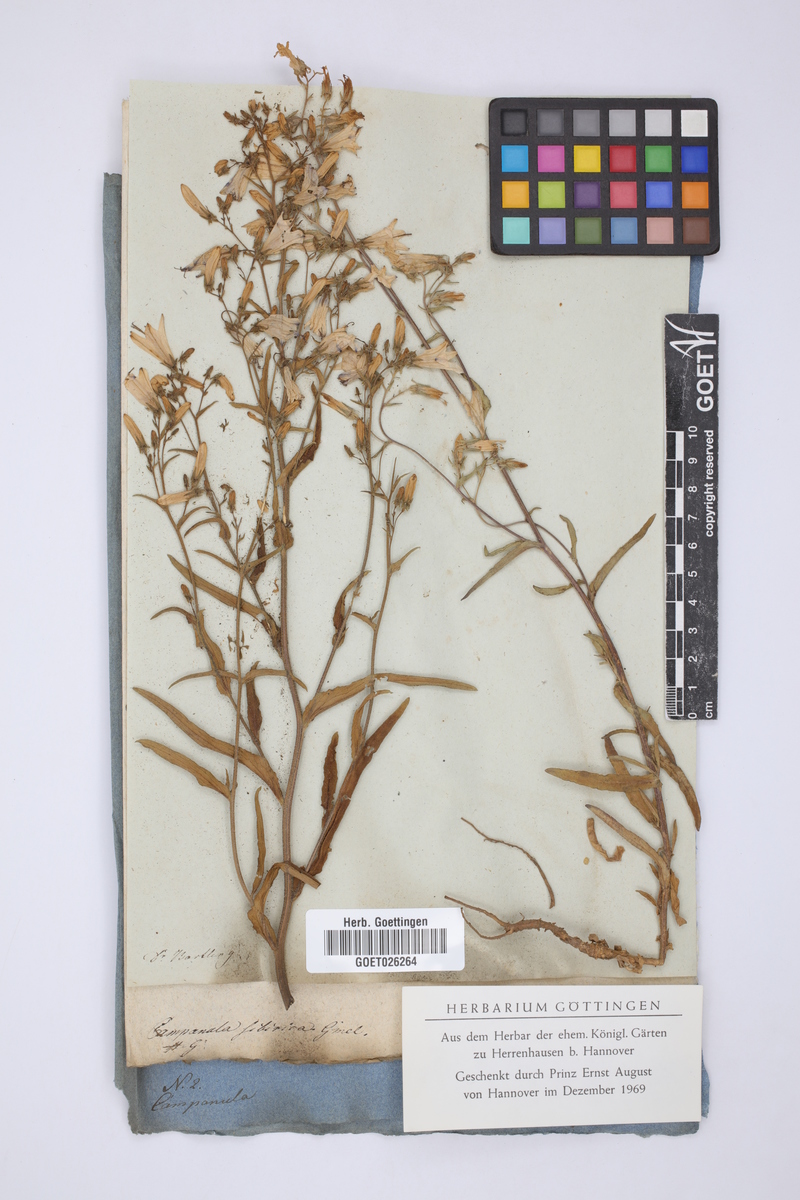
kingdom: Plantae
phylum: Tracheophyta
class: Magnoliopsida
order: Asterales
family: Campanulaceae
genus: Campanula
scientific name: Campanula sibirica
